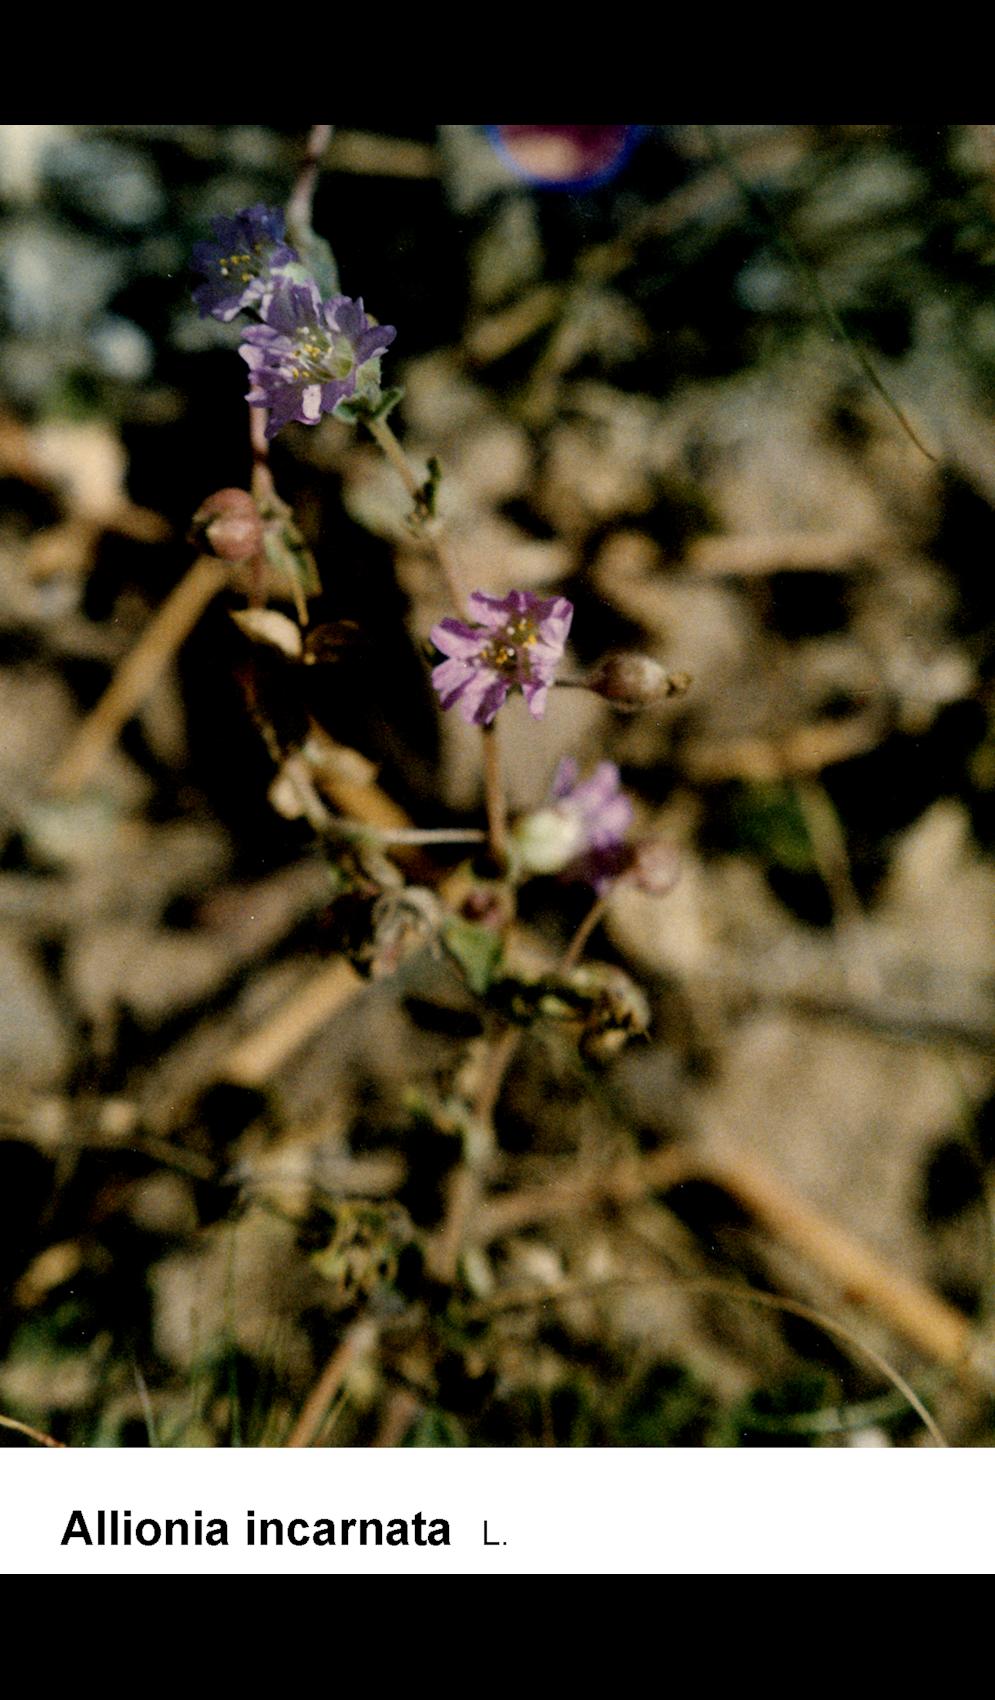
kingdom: Plantae
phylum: Tracheophyta
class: Magnoliopsida
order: Caryophyllales
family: Nyctaginaceae
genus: Allionia
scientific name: Allionia incarnata
